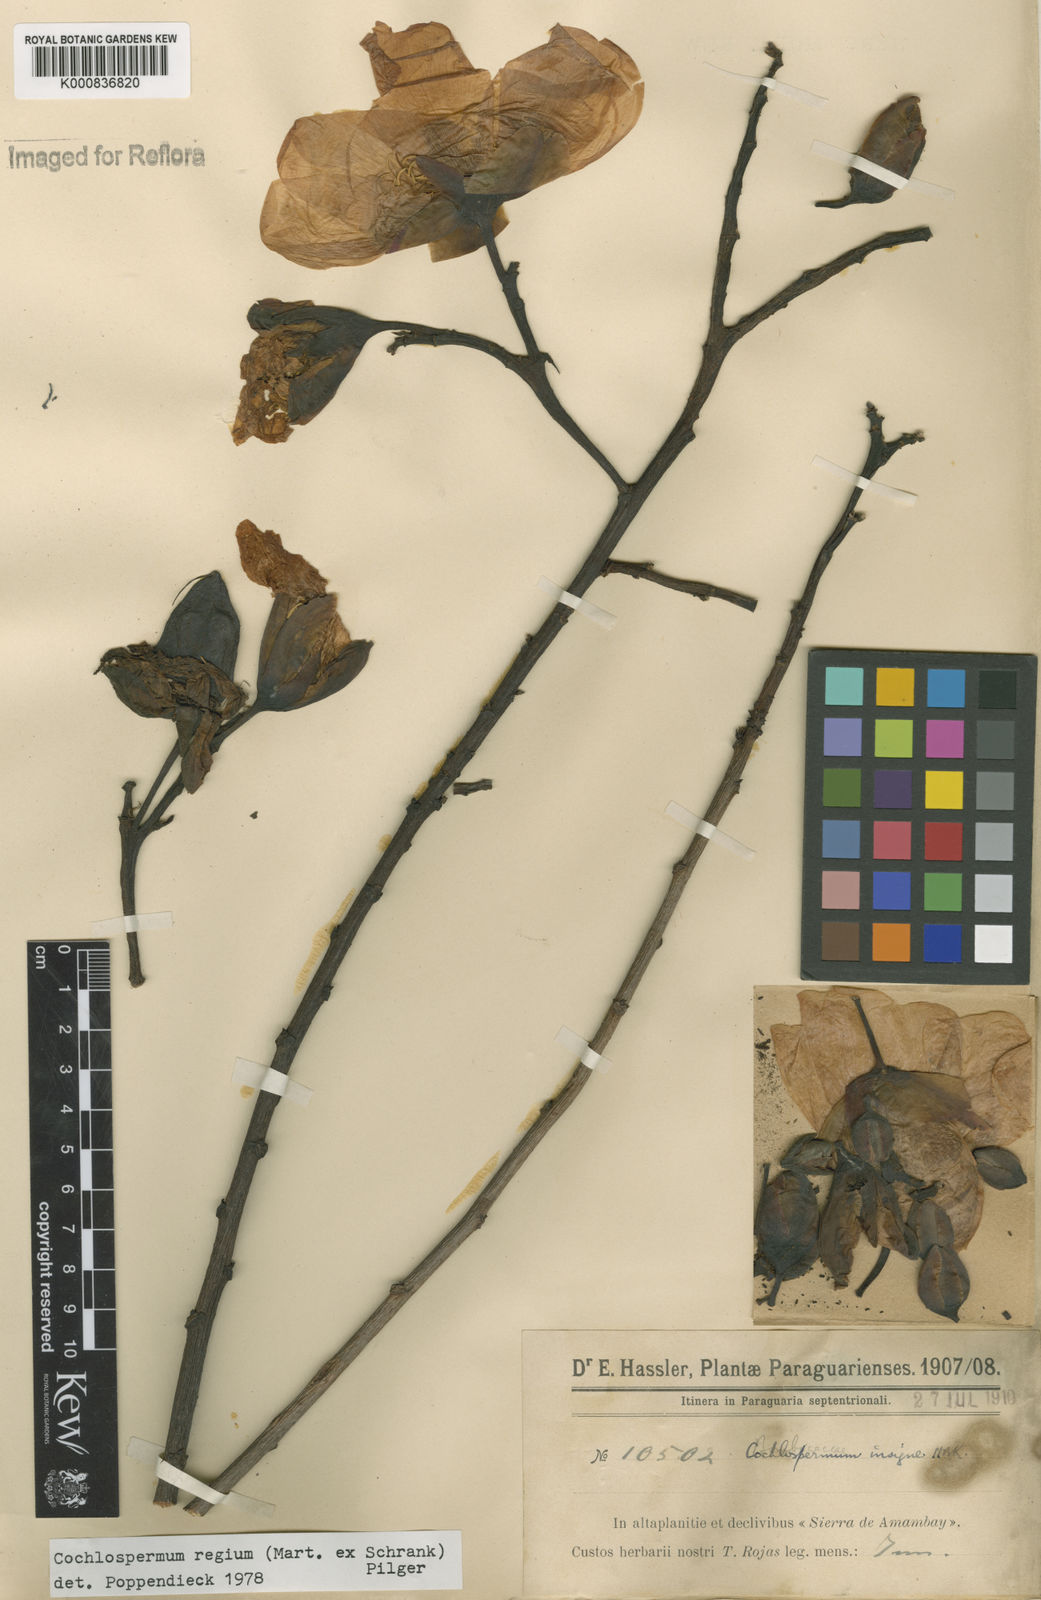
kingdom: Plantae
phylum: Tracheophyta
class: Magnoliopsida
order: Malvales
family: Cochlospermaceae
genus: Cochlospermum
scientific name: Cochlospermum regium
